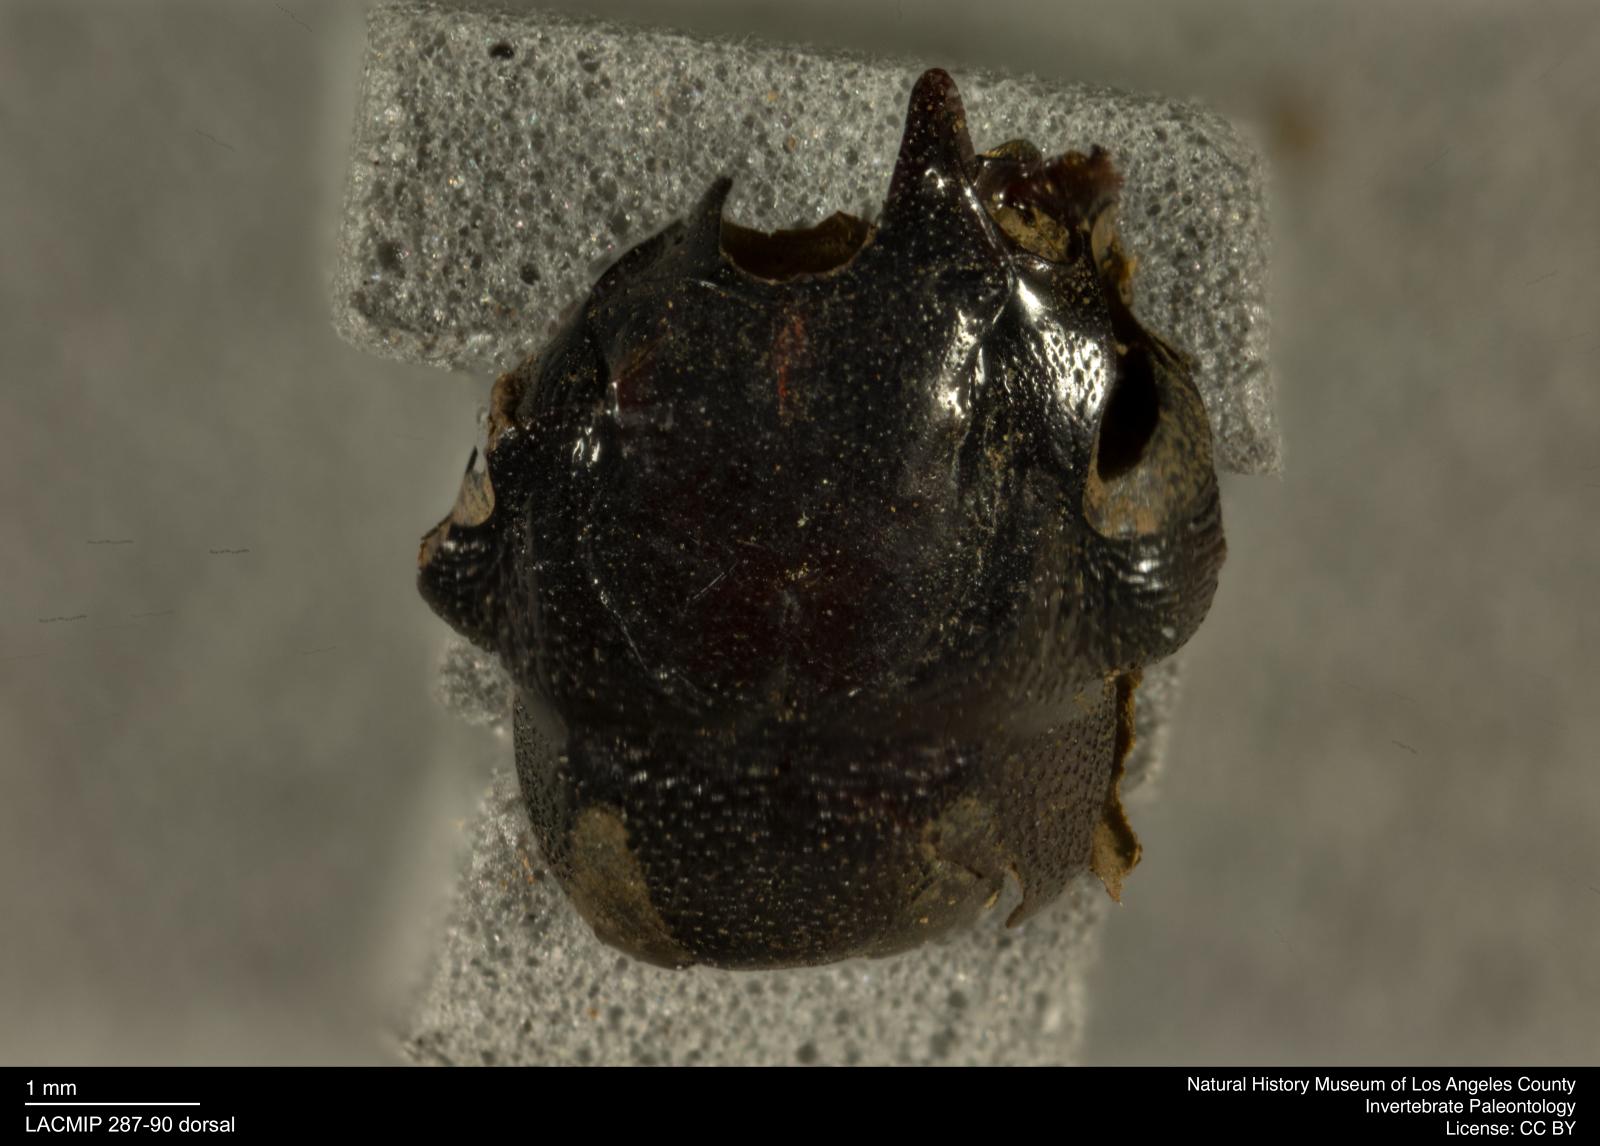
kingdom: Animalia
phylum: Arthropoda
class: Insecta
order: Coleoptera
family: Staphylinidae
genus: Nicrophorus
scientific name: Nicrophorus marginatus
